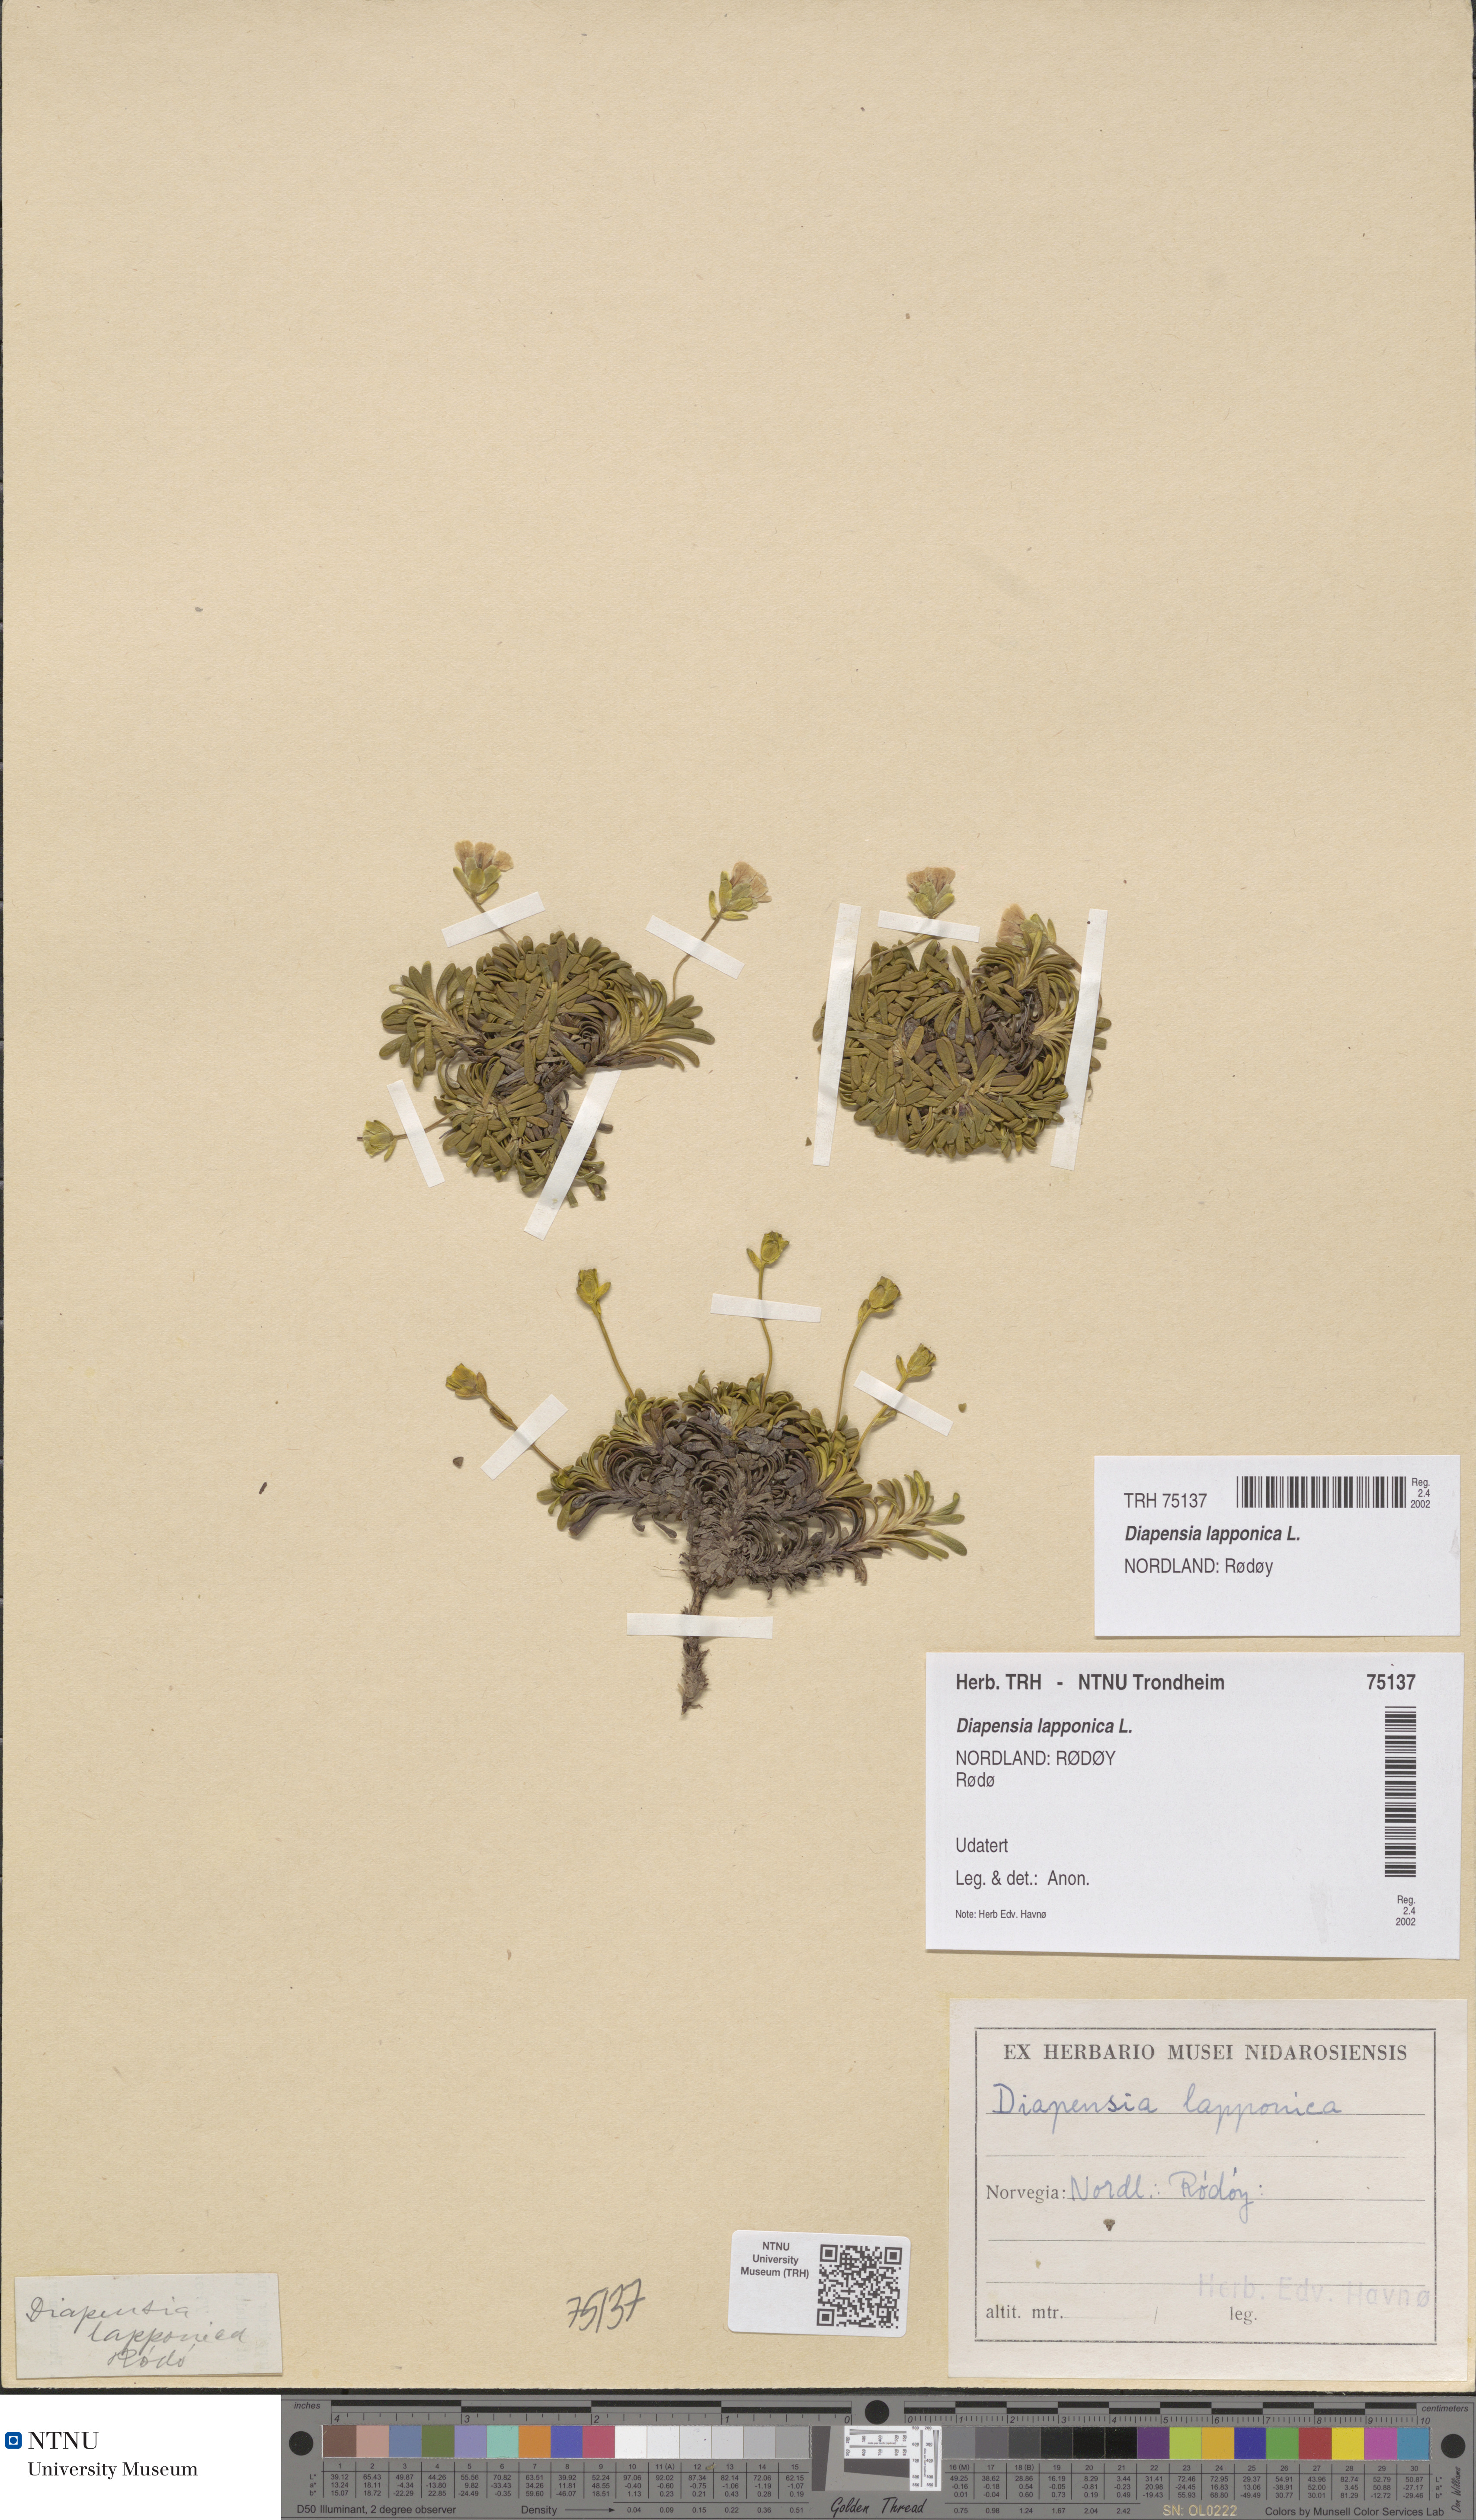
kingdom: Plantae
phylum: Tracheophyta
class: Magnoliopsida
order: Ericales
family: Diapensiaceae
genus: Diapensia
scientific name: Diapensia lapponica
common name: Diapensia
